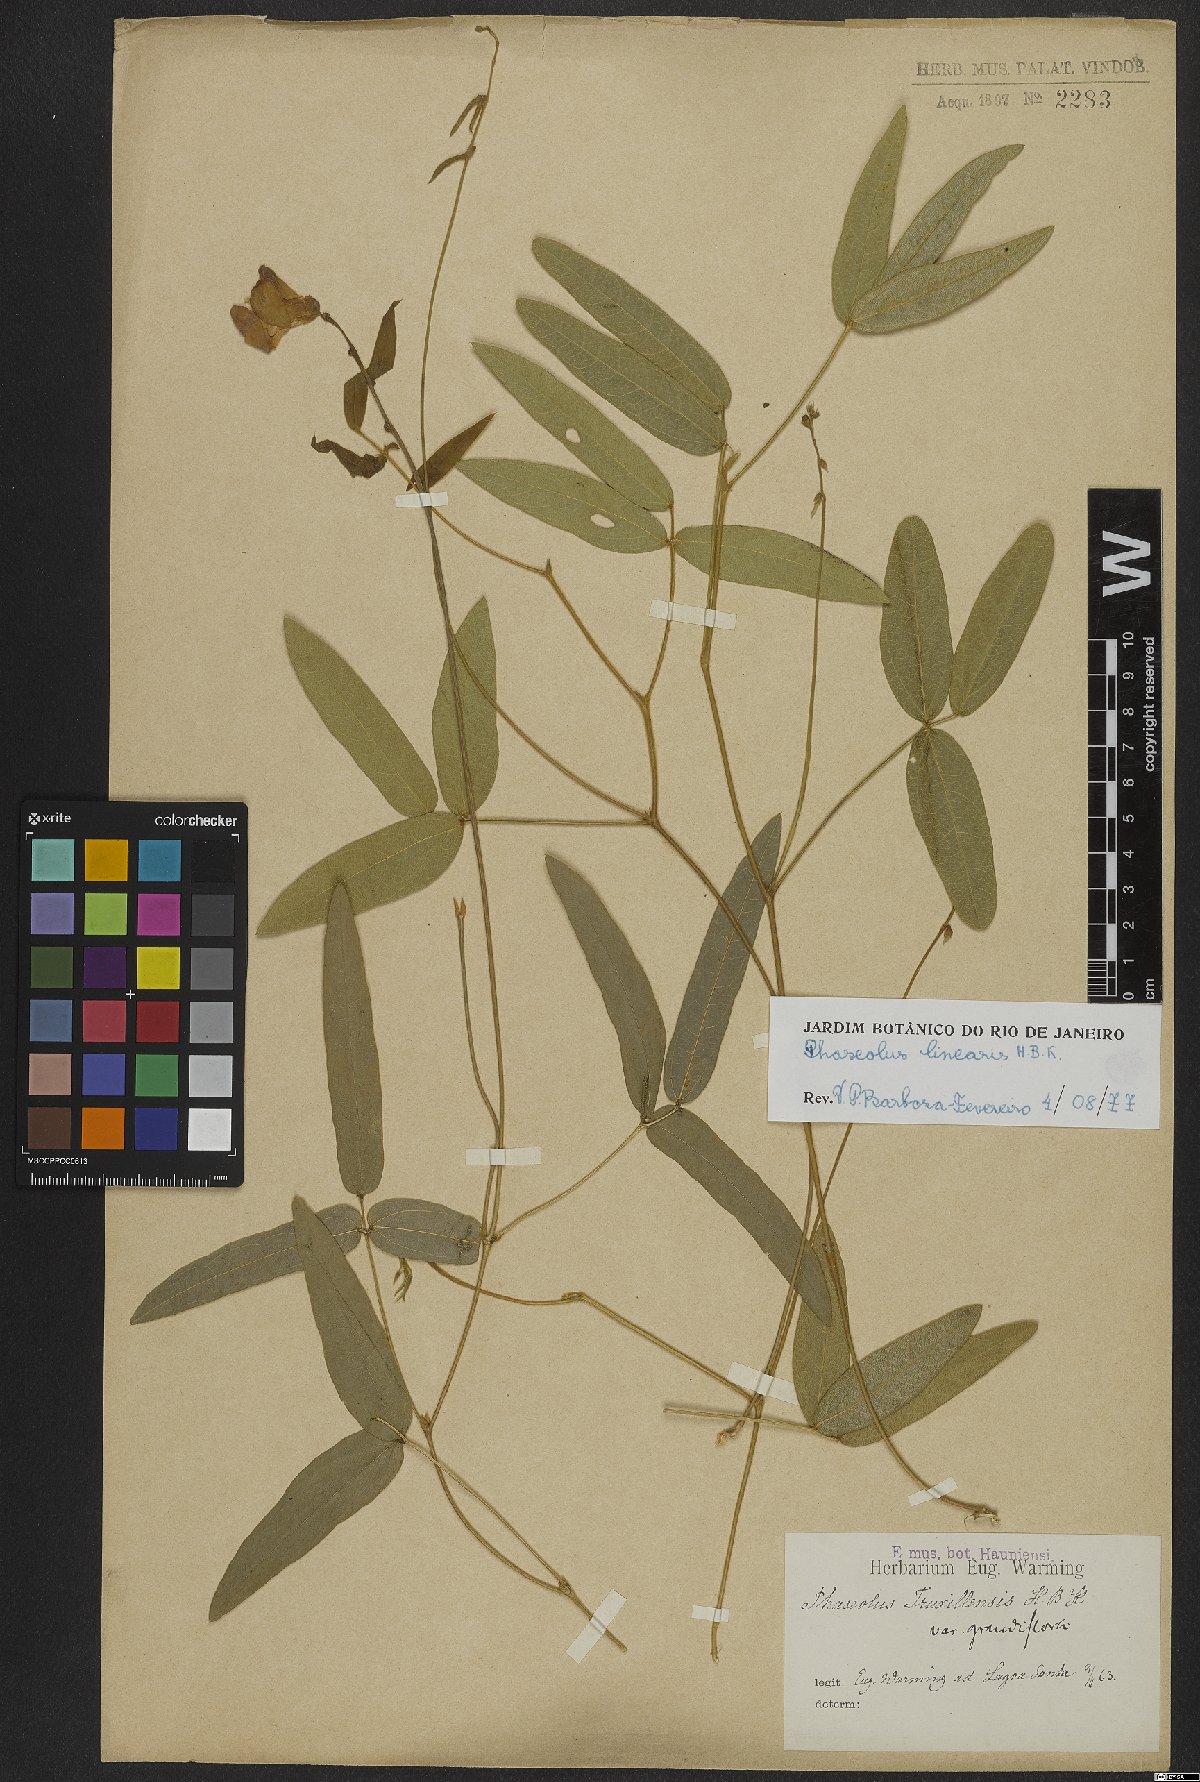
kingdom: Plantae
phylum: Tracheophyta
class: Magnoliopsida
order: Fabales
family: Fabaceae
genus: Helicotropis
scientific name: Helicotropis linearis
